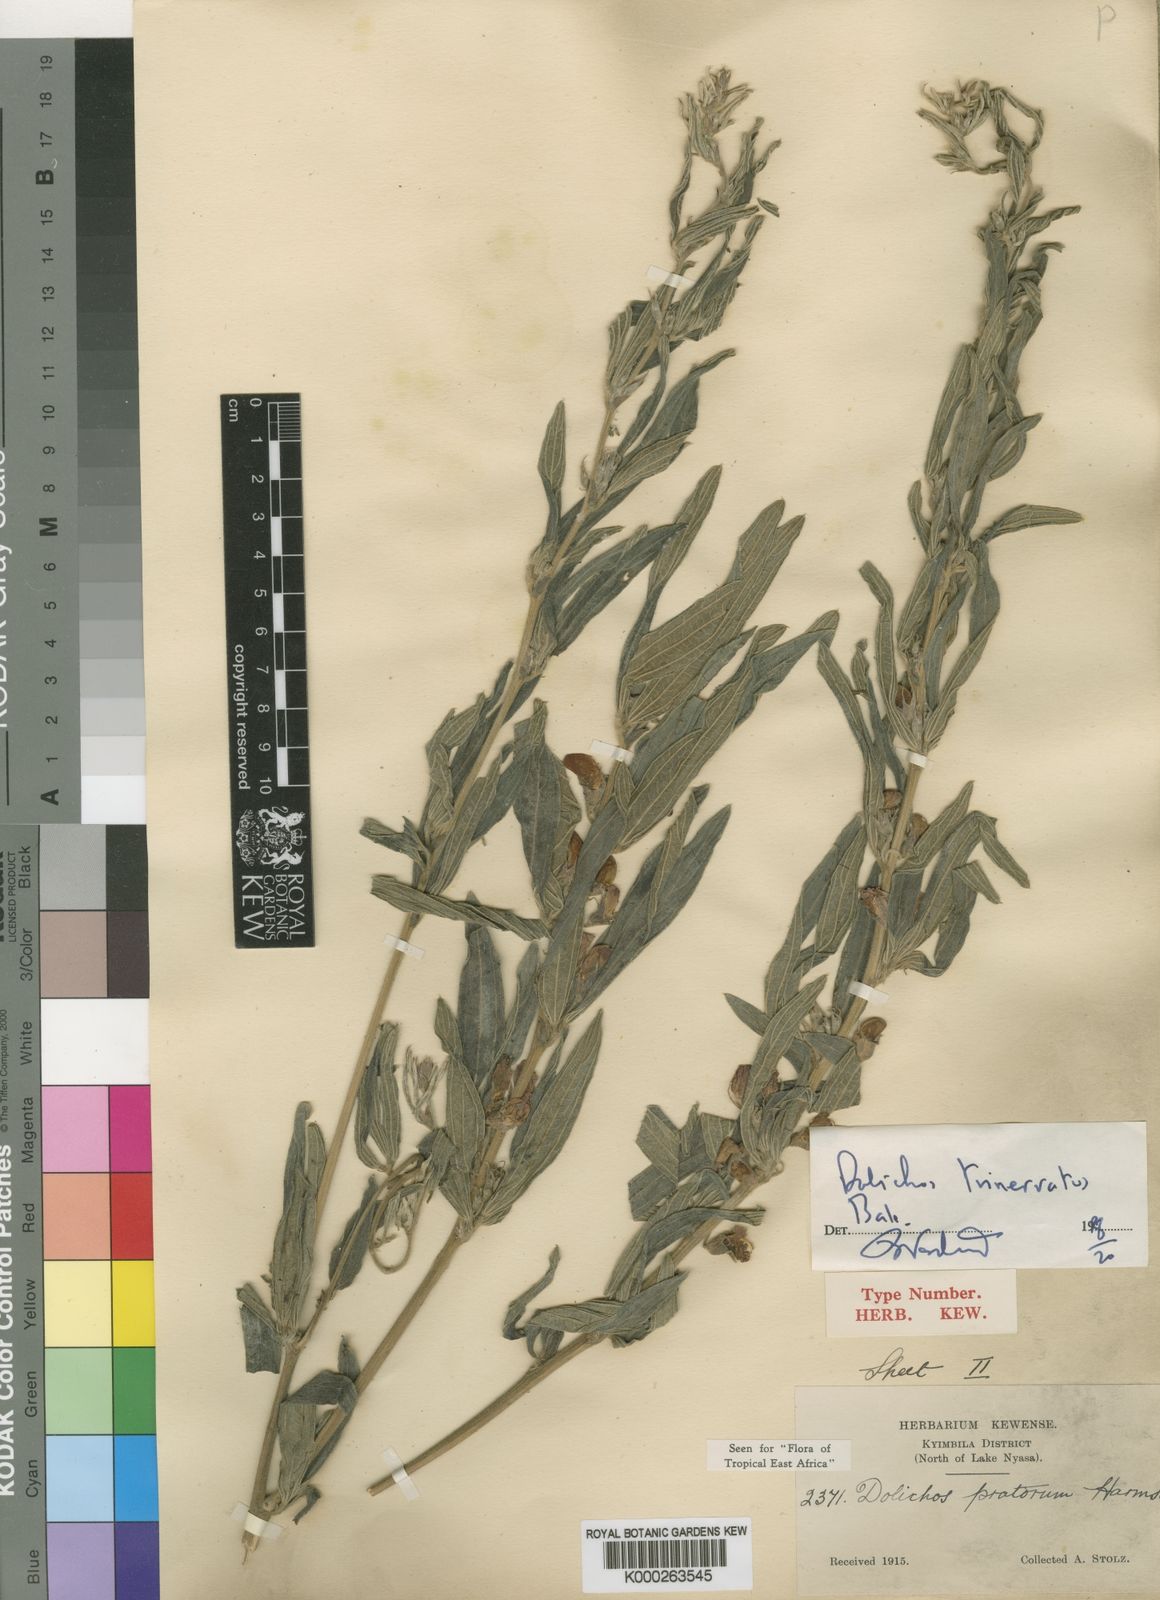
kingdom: Plantae
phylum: Tracheophyta
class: Magnoliopsida
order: Fabales
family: Fabaceae
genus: Dolichos
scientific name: Dolichos trinervatus
